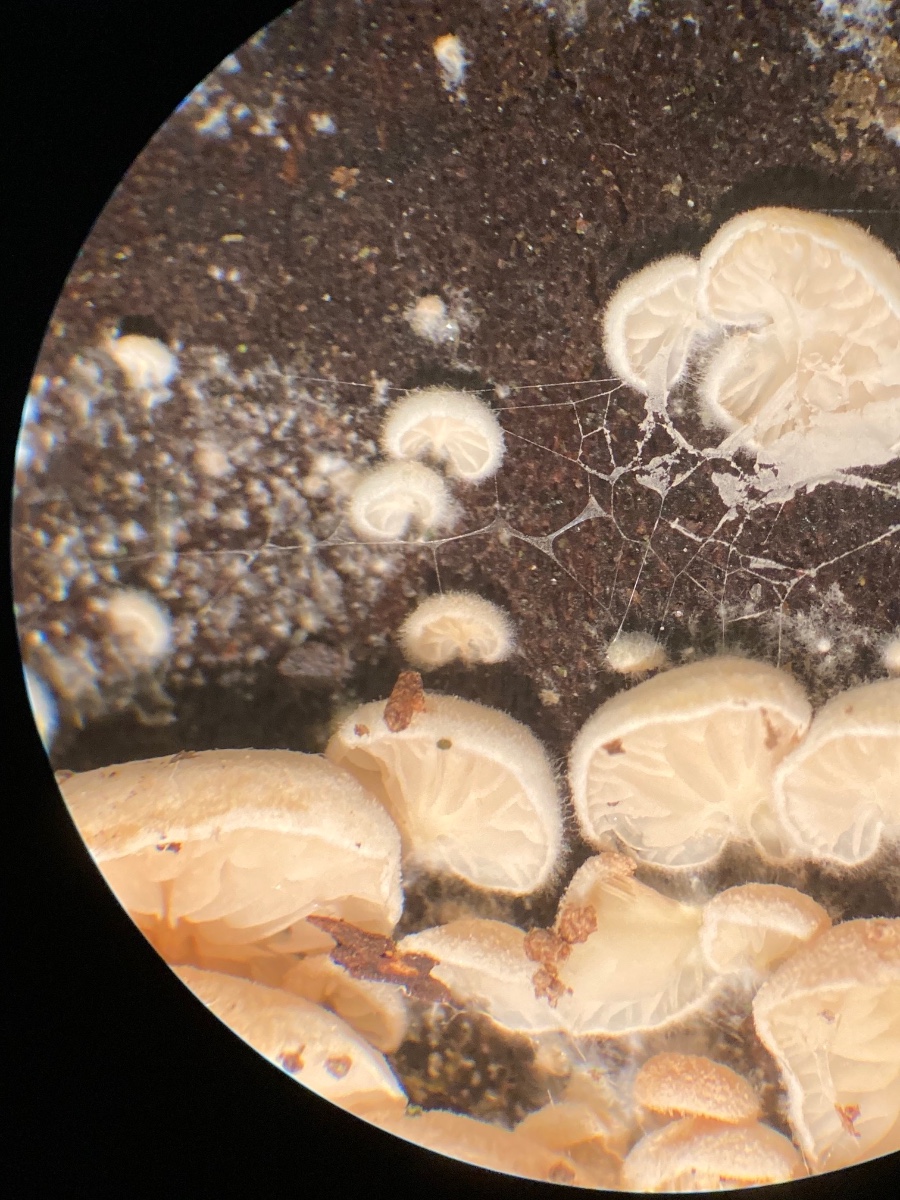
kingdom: Fungi
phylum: Basidiomycota
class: Agaricomycetes
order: Agaricales
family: Entolomataceae
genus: Clitopilus
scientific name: Clitopilus baronii
